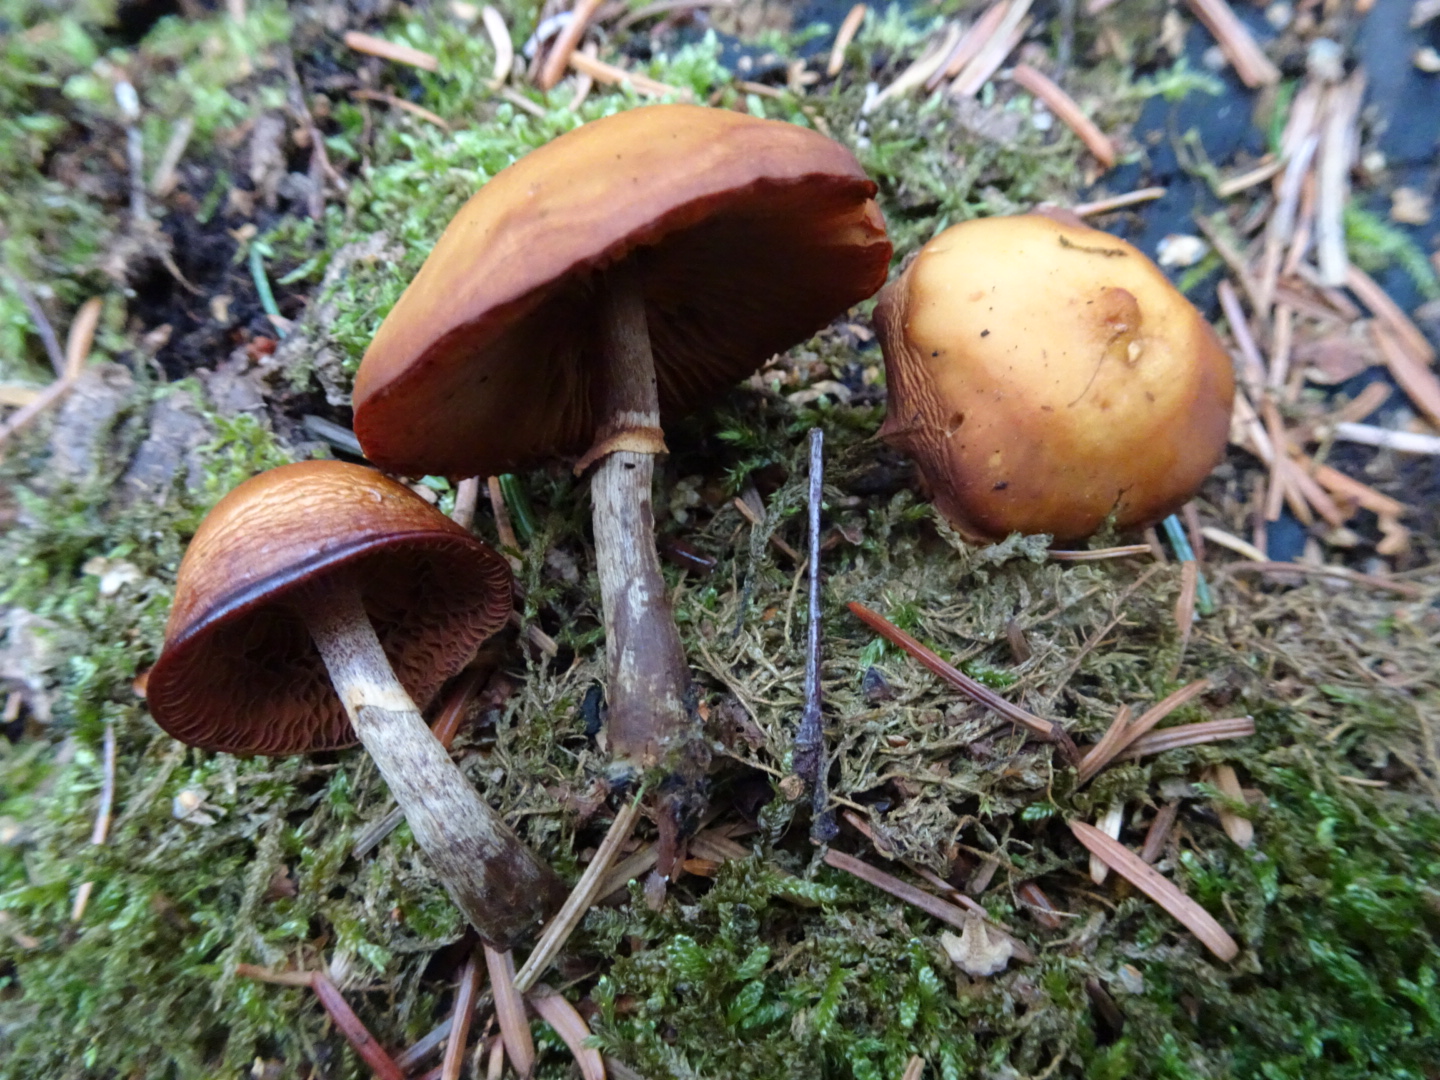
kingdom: Fungi
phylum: Basidiomycota
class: Agaricomycetes
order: Agaricales
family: Hymenogastraceae
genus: Galerina
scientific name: Galerina marginata
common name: randbæltet hjelmhat
